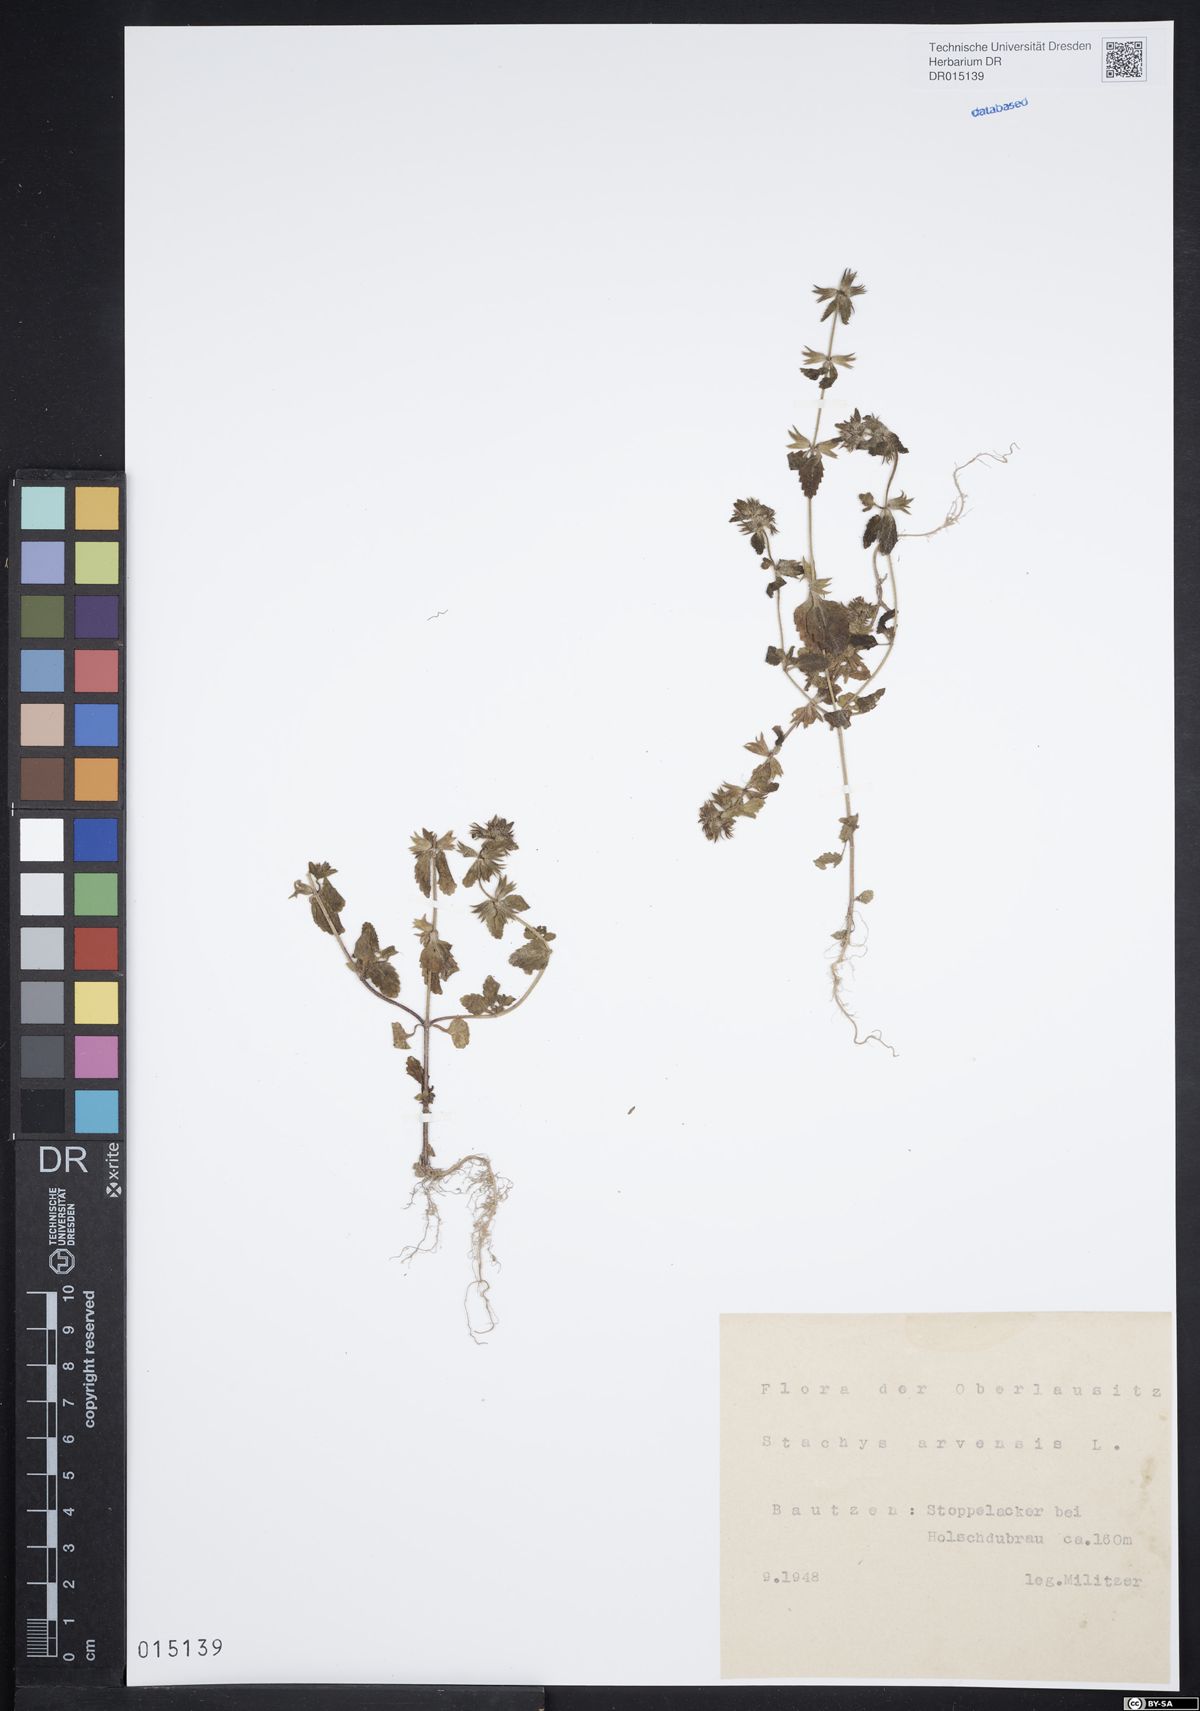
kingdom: Plantae
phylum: Tracheophyta
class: Magnoliopsida
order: Lamiales
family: Lamiaceae
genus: Stachys
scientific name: Stachys arvensis
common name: Field woundwort
